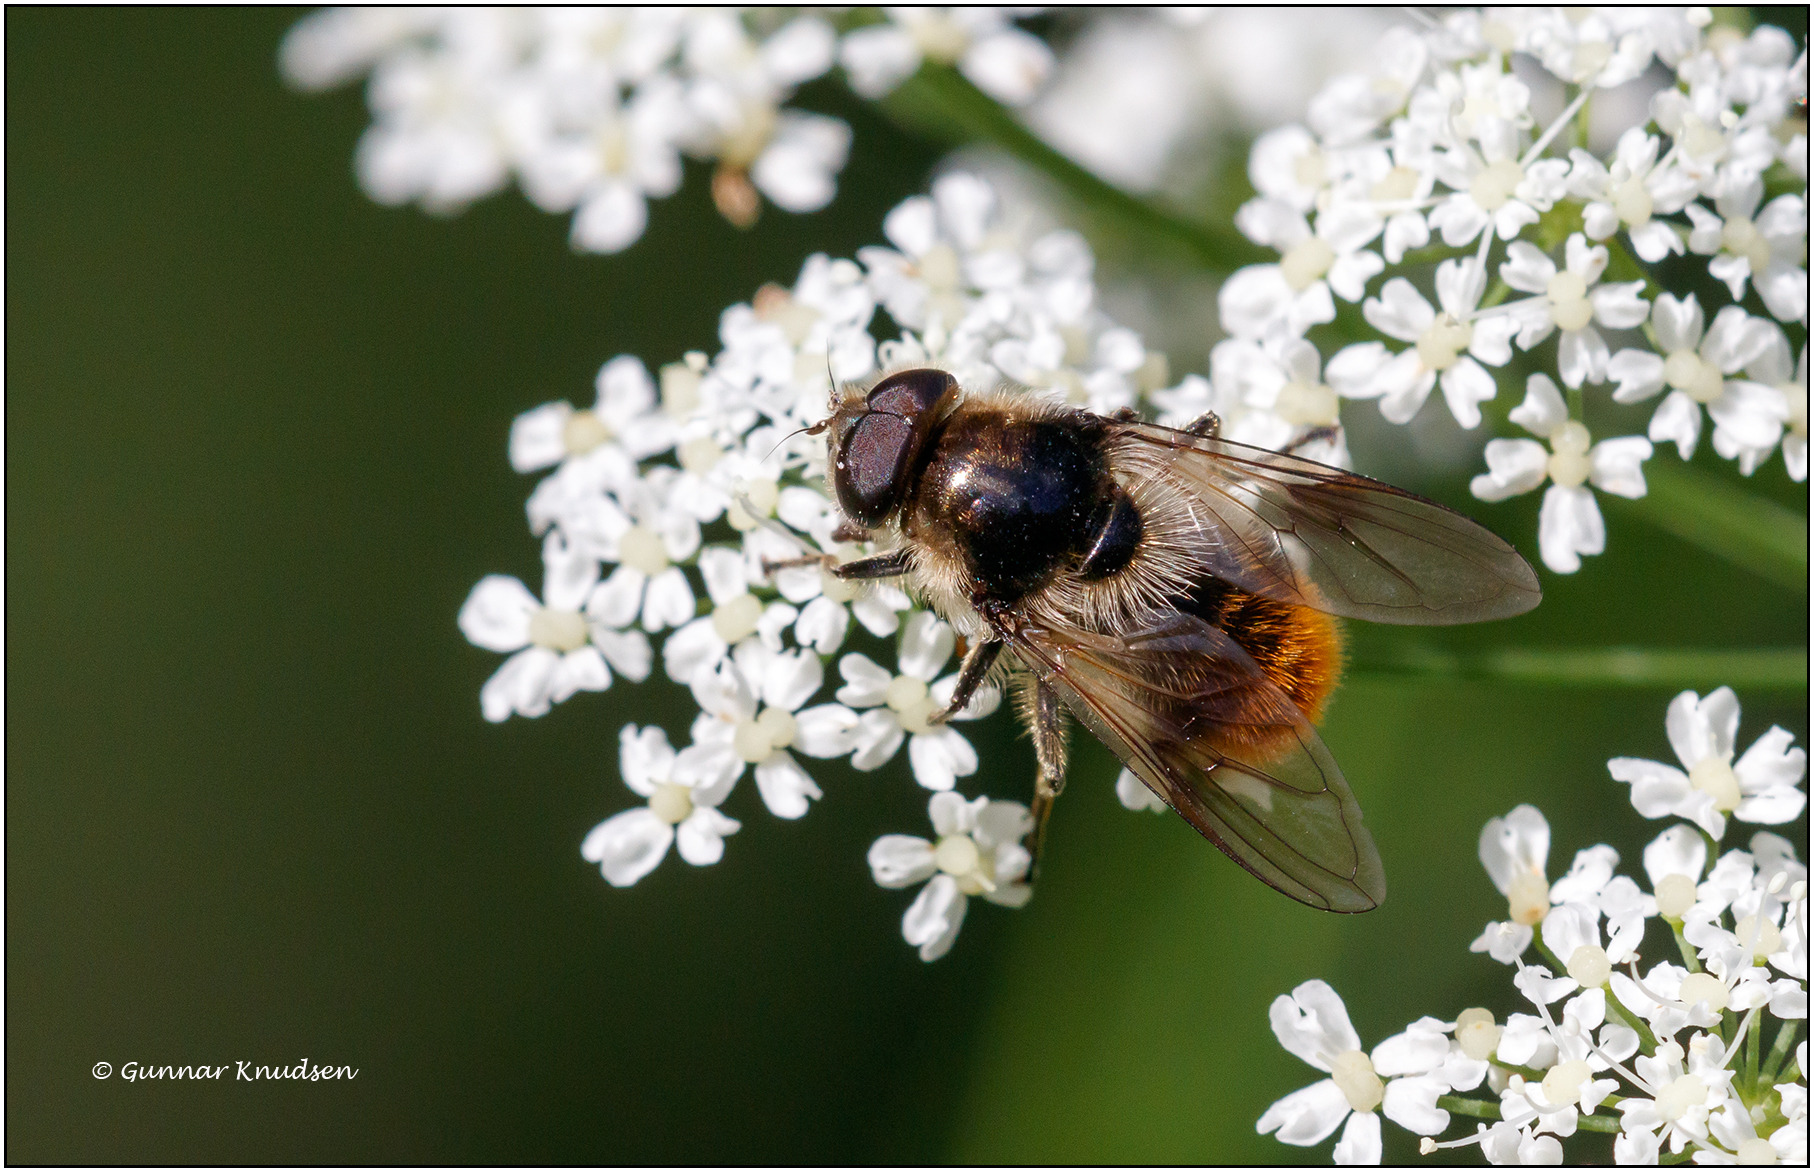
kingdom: Animalia
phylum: Arthropoda
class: Insecta
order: Diptera
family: Syrphidae
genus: Cheilosia
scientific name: Cheilosia illustrata
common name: Broget urtesvirreflue
